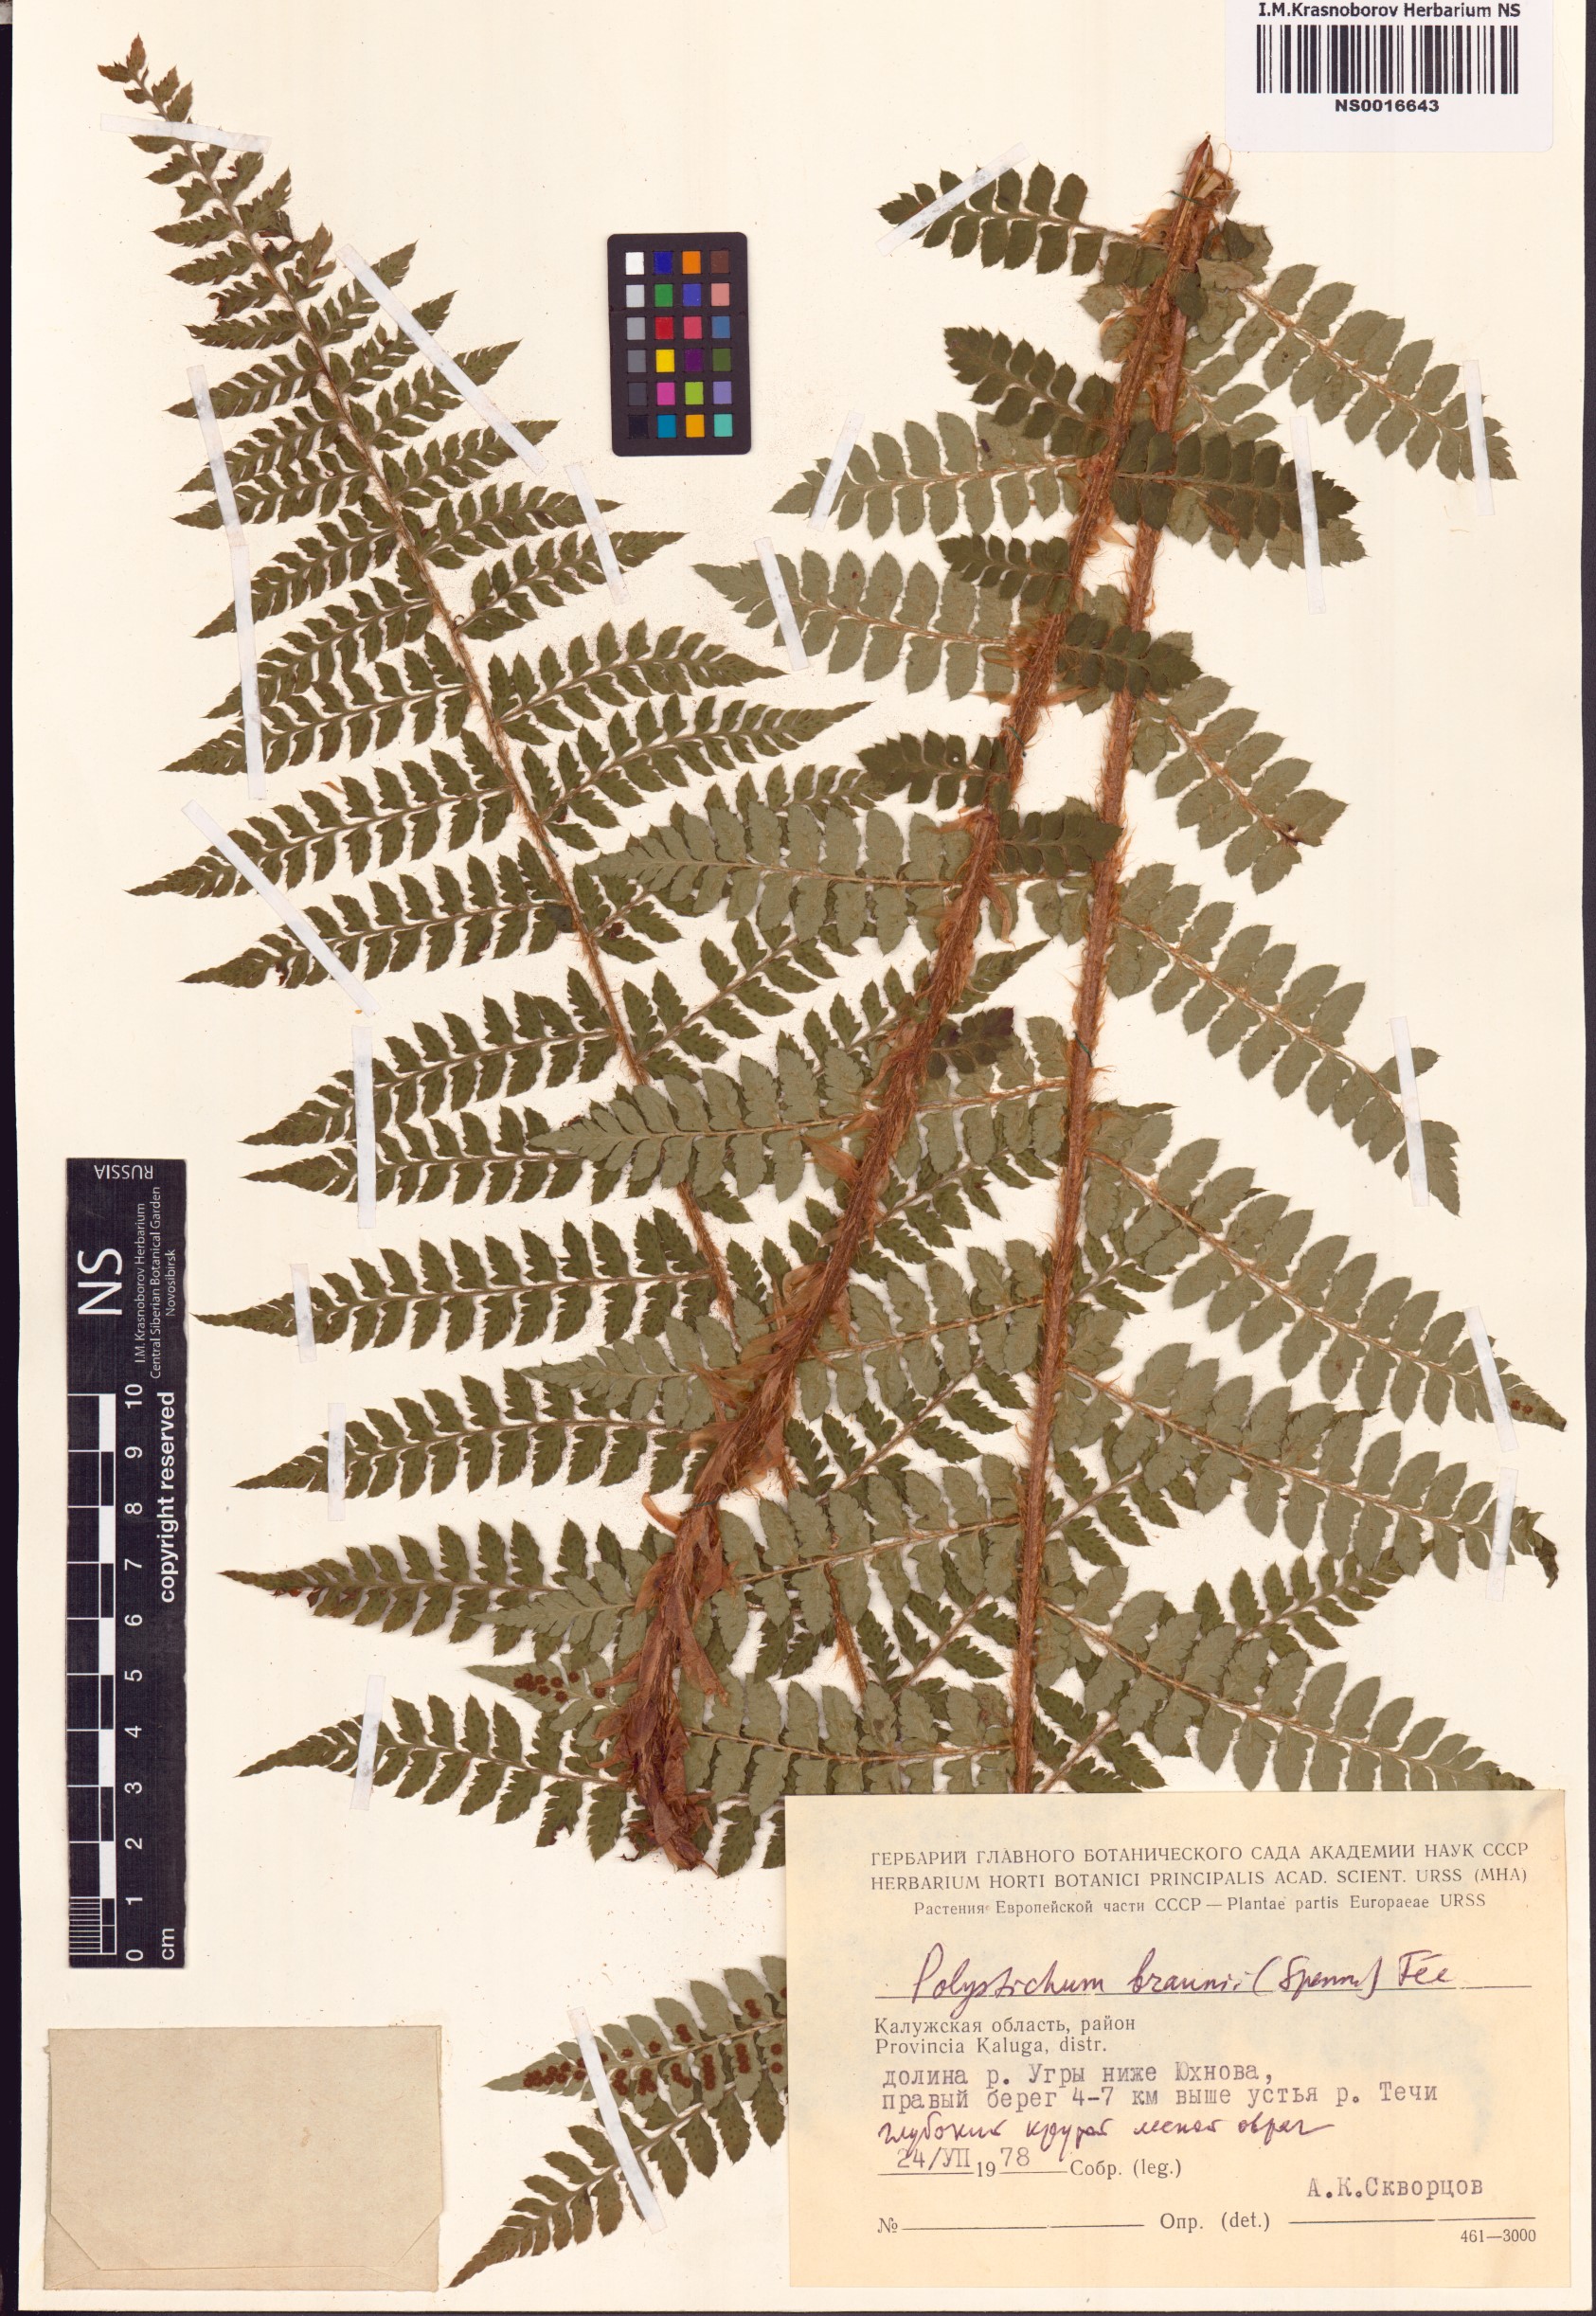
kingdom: Plantae
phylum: Tracheophyta
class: Polypodiopsida
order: Polypodiales
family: Dryopteridaceae
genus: Polystichum
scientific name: Polystichum braunii
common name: Braun's holly fern
